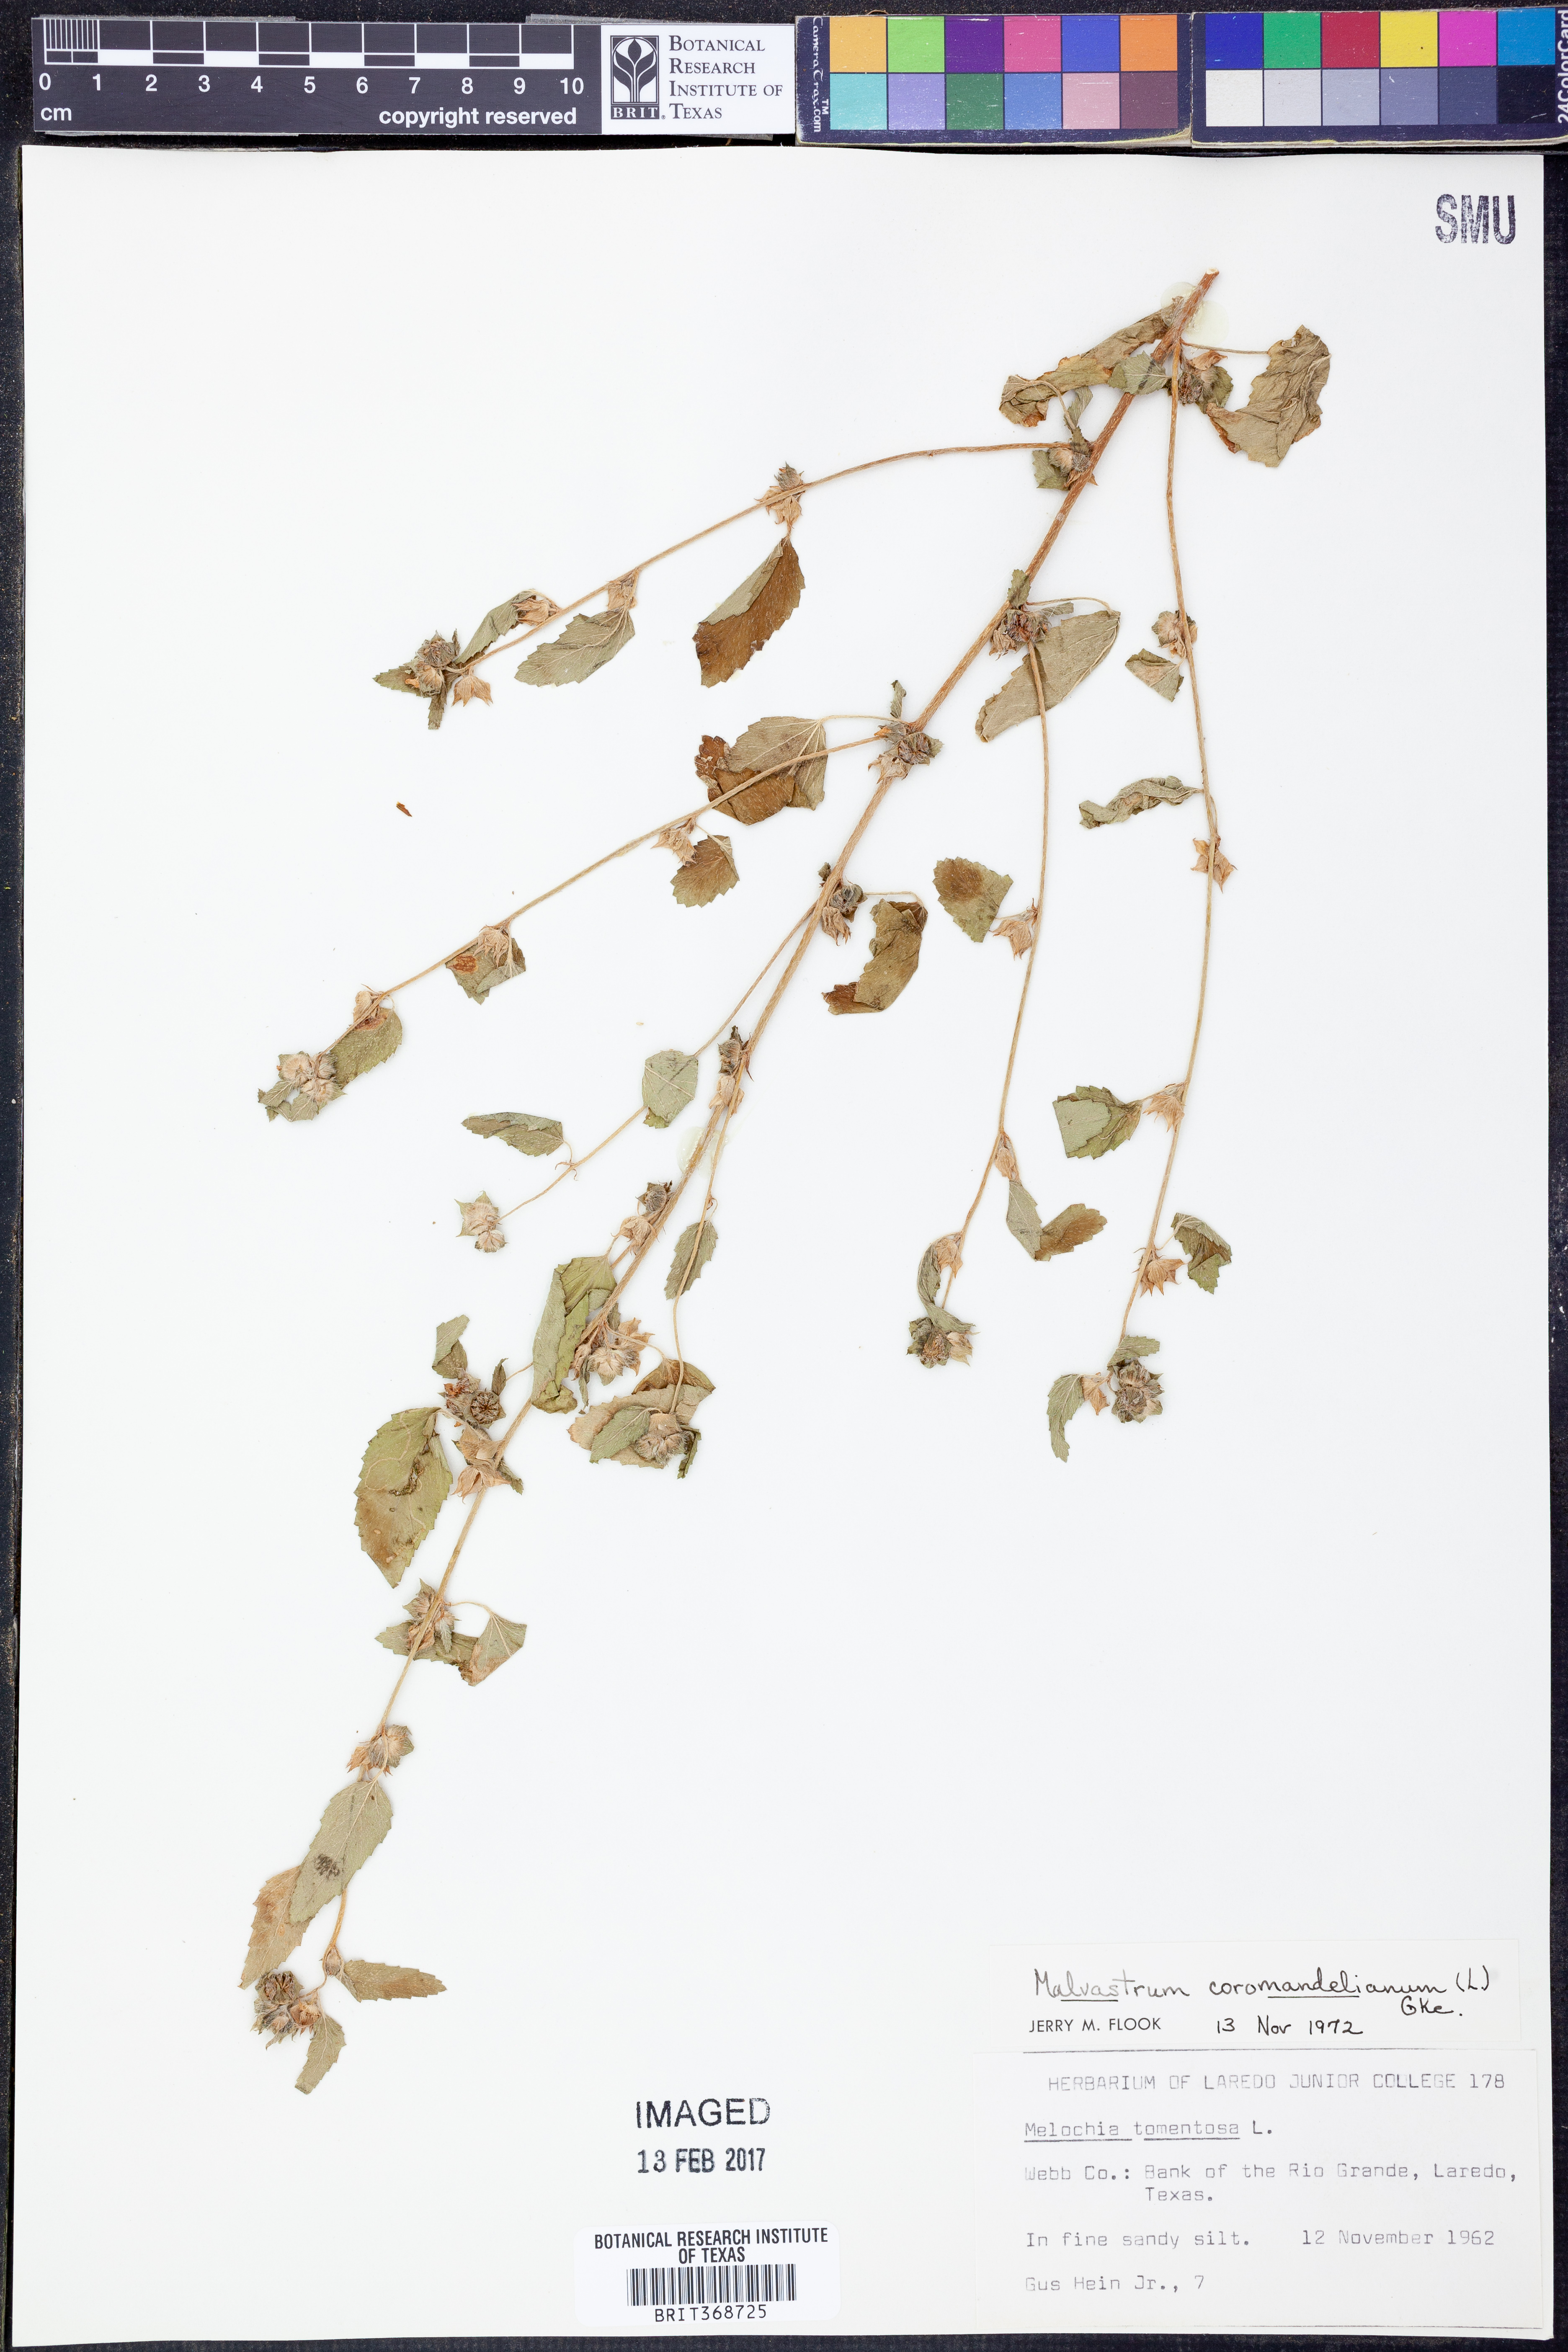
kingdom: Plantae
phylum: Tracheophyta
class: Magnoliopsida
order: Malvales
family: Malvaceae
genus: Malvastrum
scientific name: Malvastrum coromandelianum
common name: Threelobe false mallow
